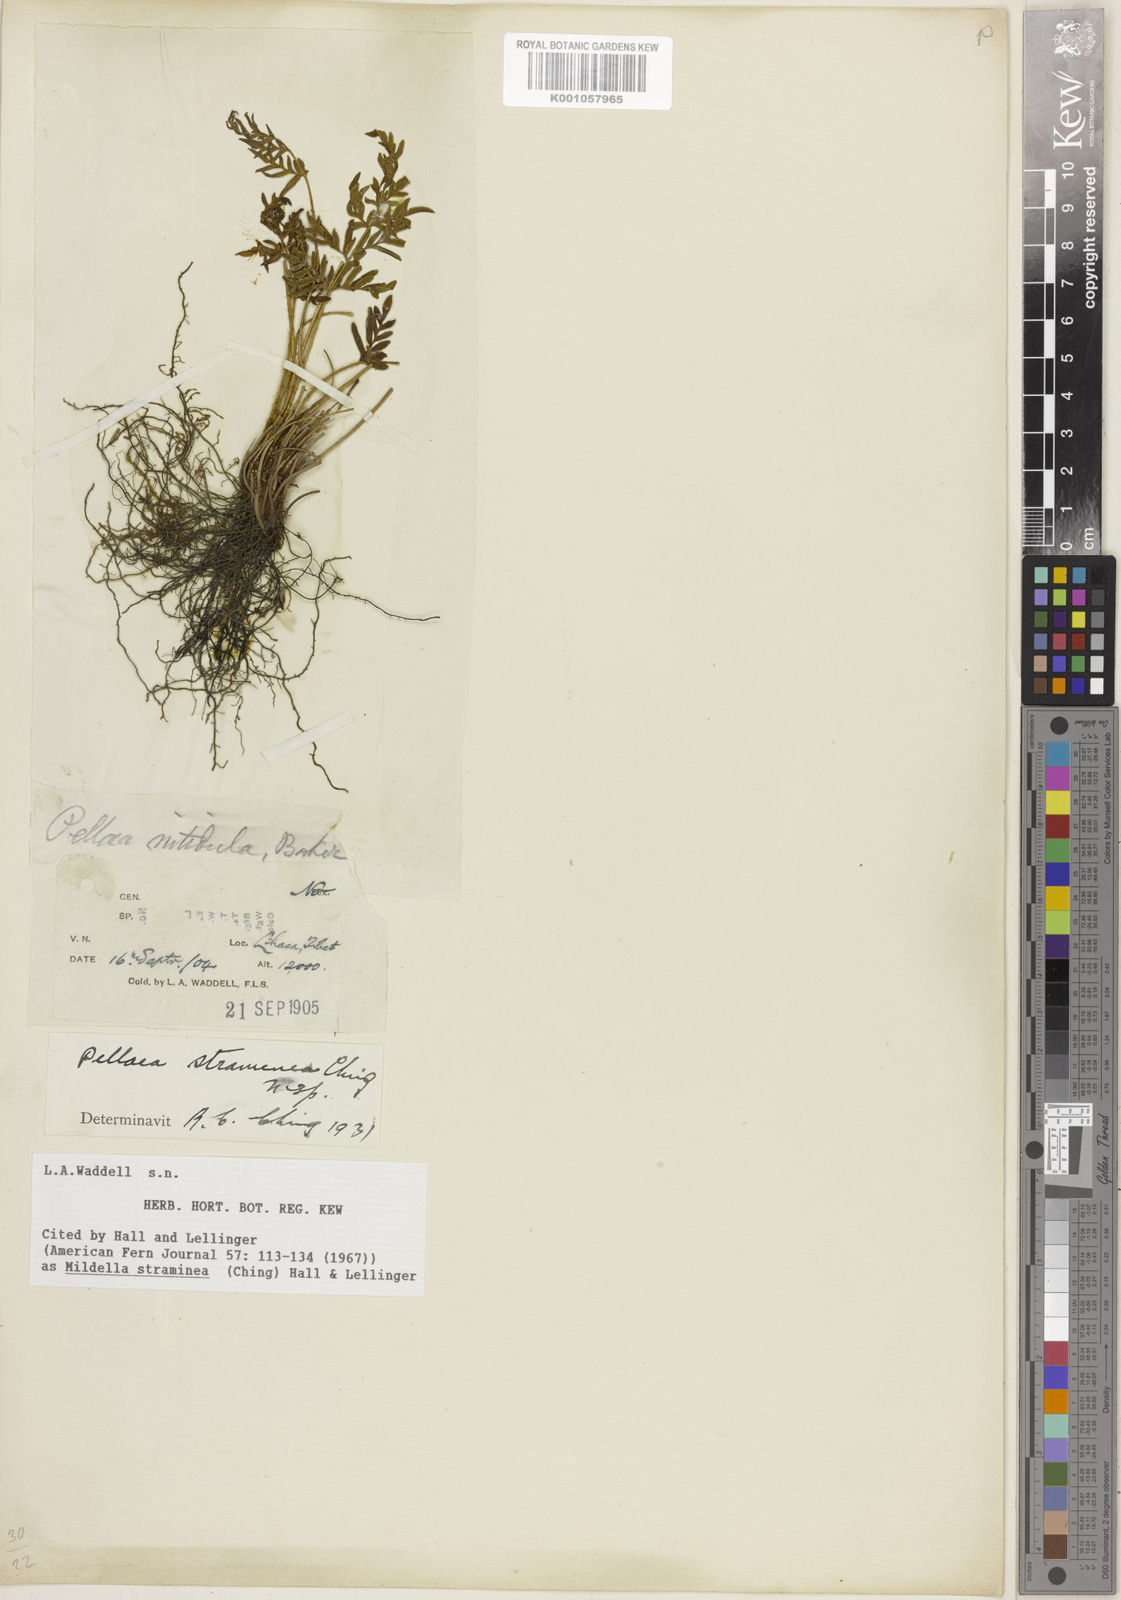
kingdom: Plantae
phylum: Tracheophyta
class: Polypodiopsida
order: Polypodiales
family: Pteridaceae
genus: Oeosporangium
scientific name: Oeosporangium stramineum
